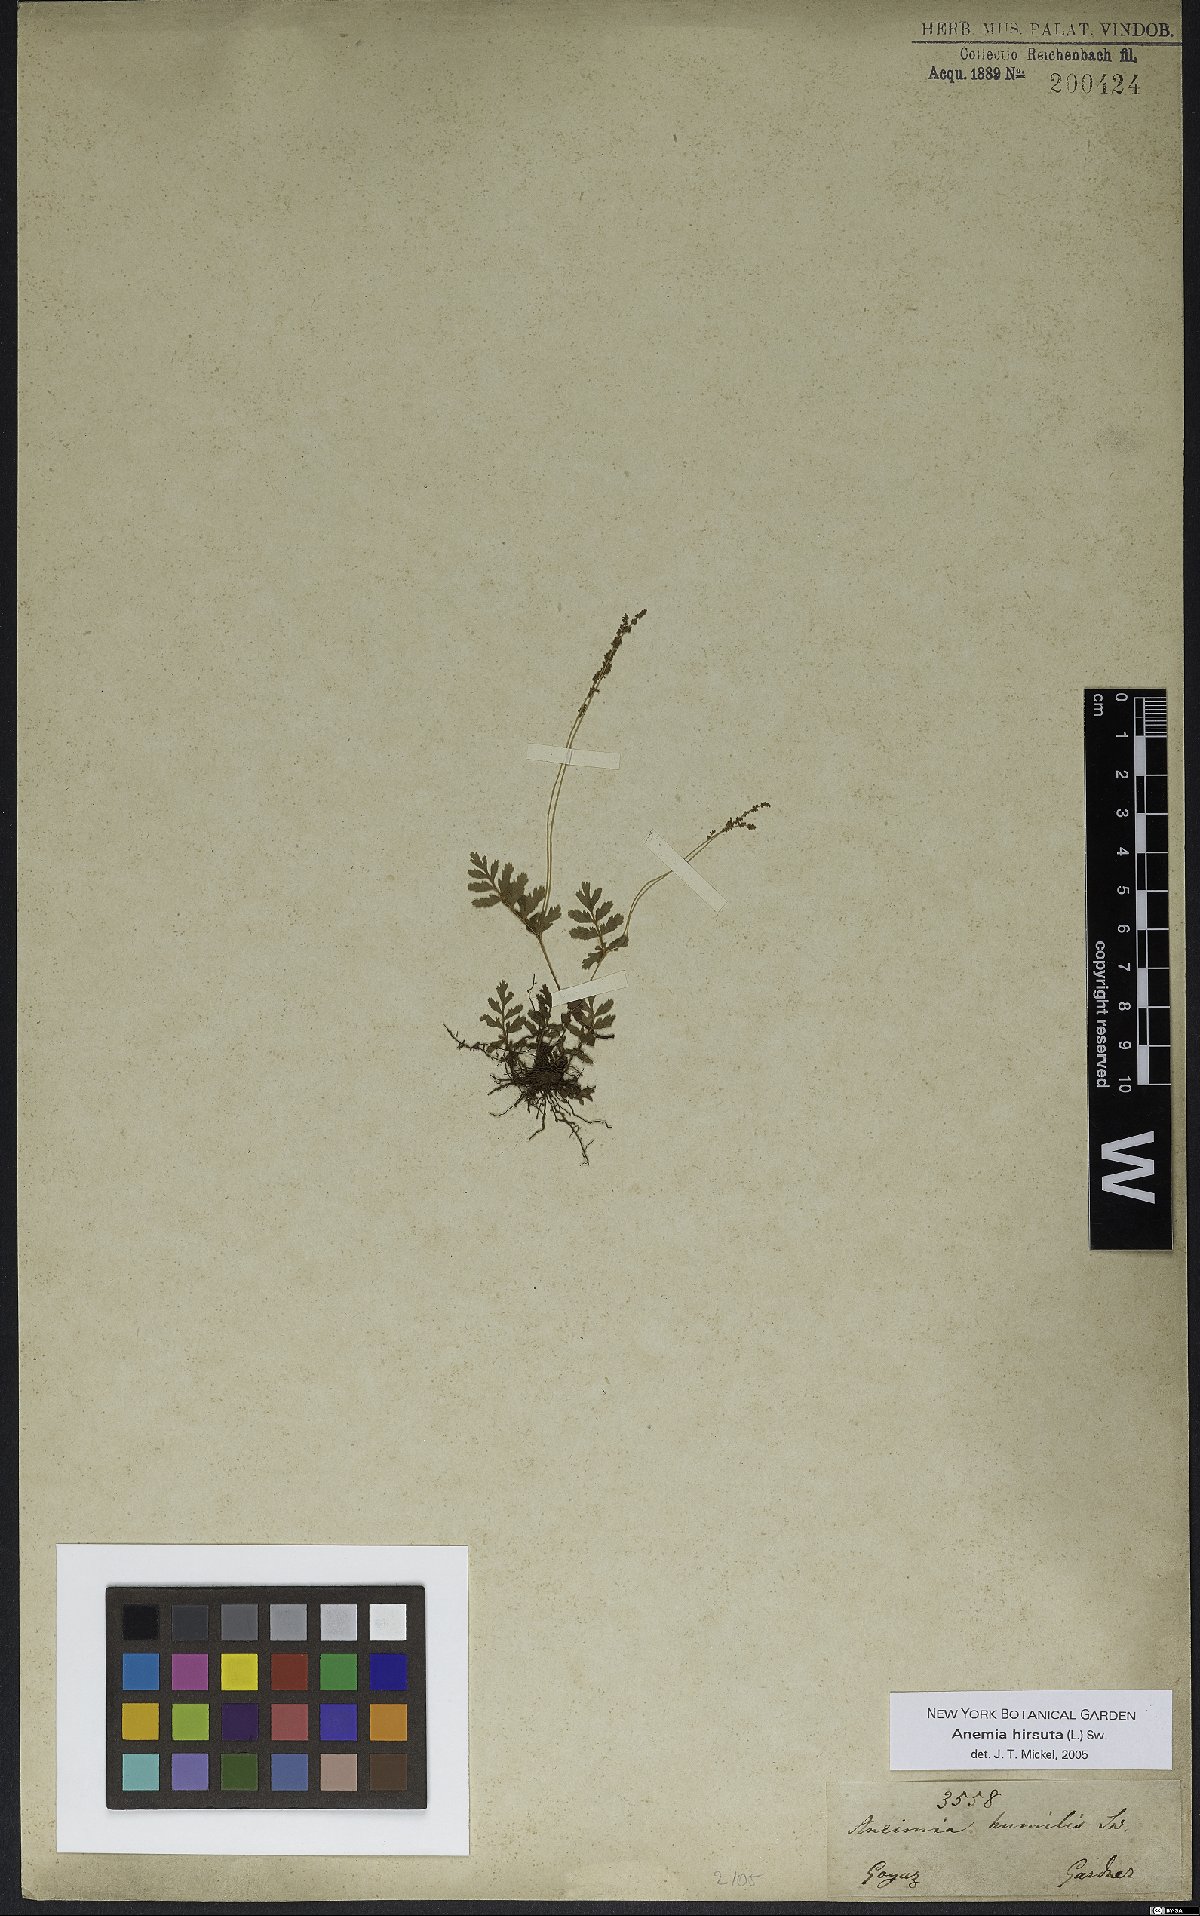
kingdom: Plantae
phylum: Tracheophyta
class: Polypodiopsida
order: Schizaeales
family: Anemiaceae
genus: Anemia
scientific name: Anemia hirsuta
